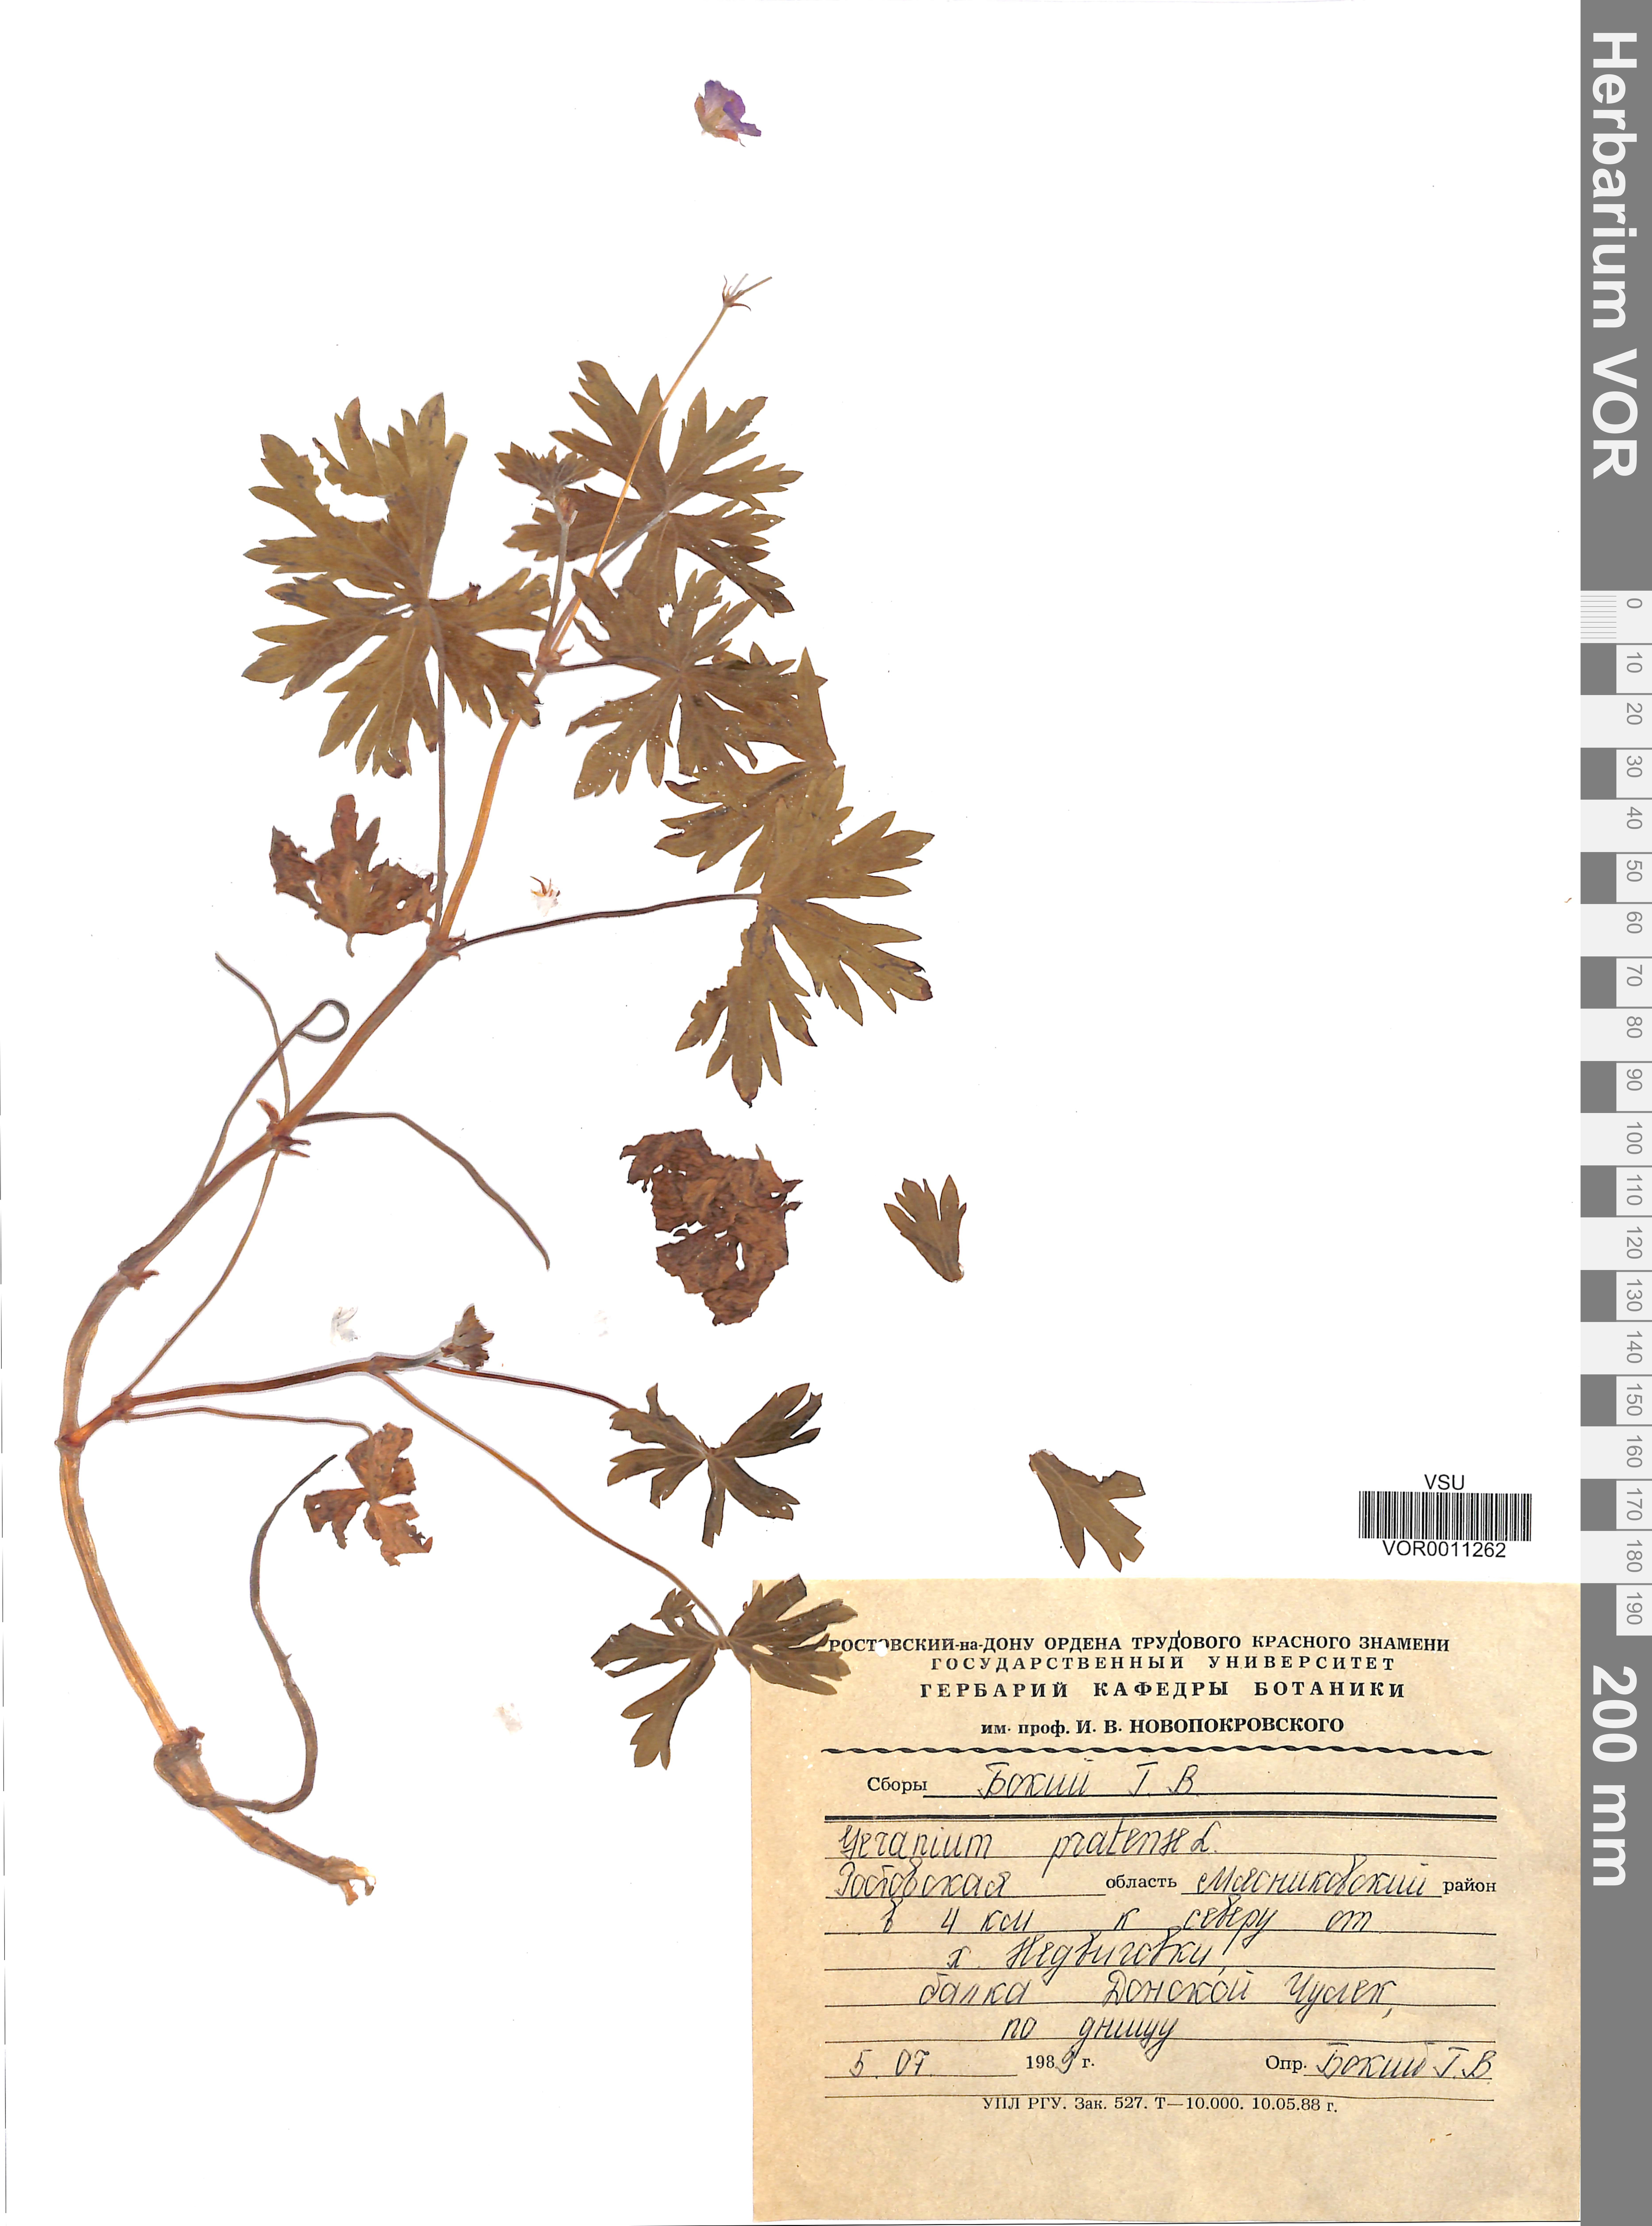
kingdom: Plantae
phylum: Tracheophyta
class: Magnoliopsida
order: Geraniales
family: Geraniaceae
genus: Geranium
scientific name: Geranium pratense
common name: Meadow crane's-bill
